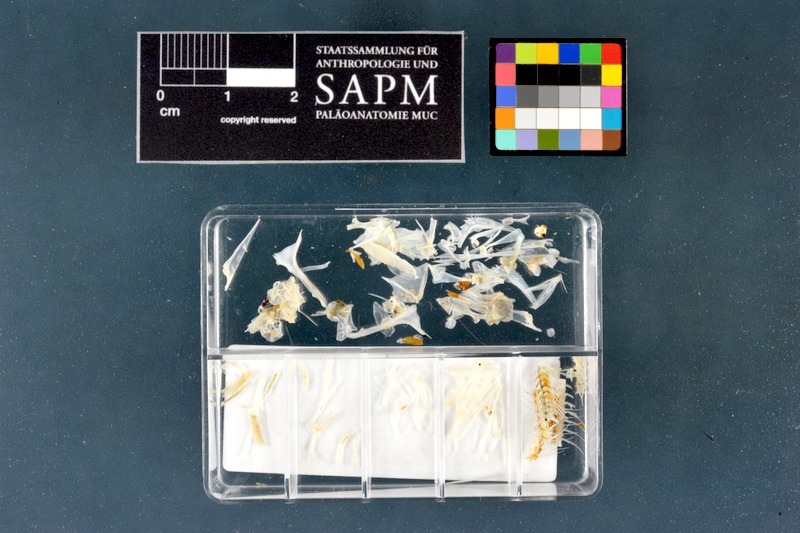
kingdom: Animalia
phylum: Chordata
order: Perciformes
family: Percidae
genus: Perca
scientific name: Perca fluviatilis
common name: Perch
